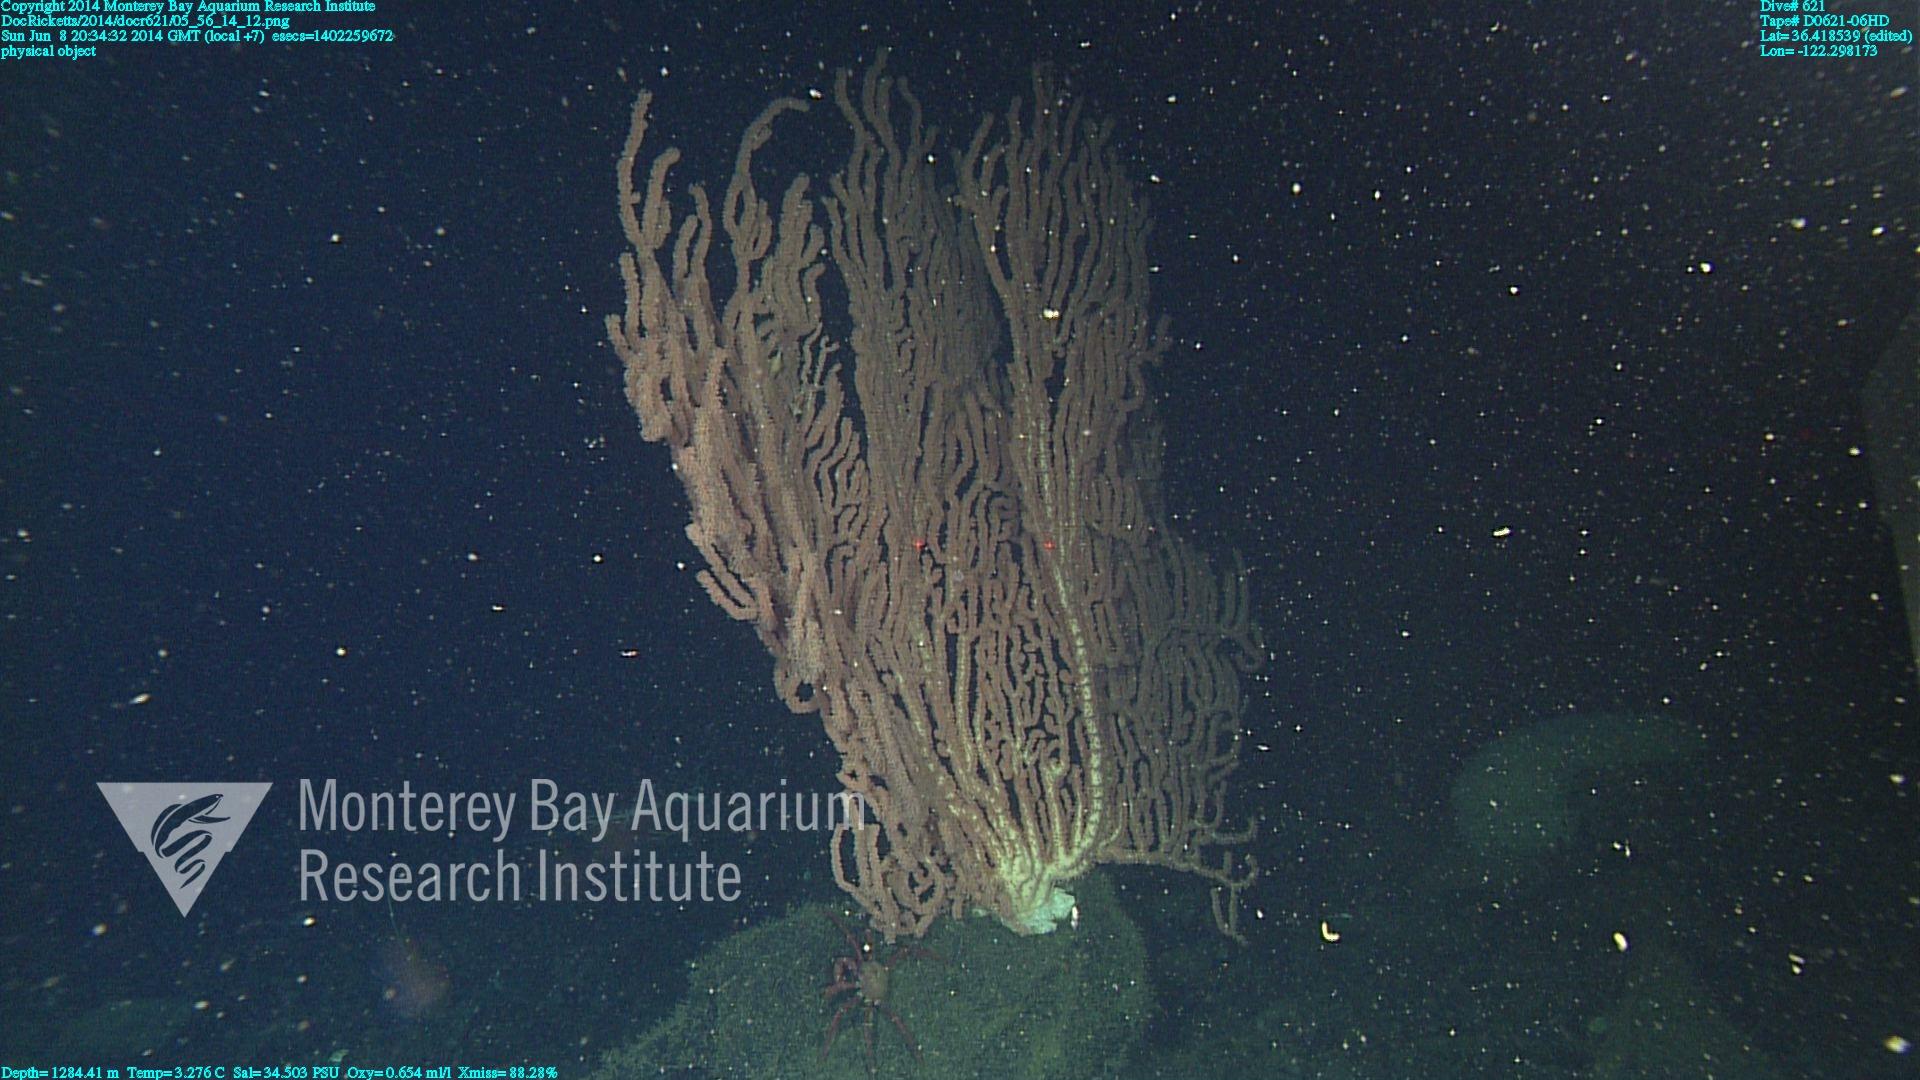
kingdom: Animalia
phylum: Cnidaria
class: Anthozoa
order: Scleralcyonacea
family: Keratoisididae
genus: Keratoisis
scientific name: Keratoisis
